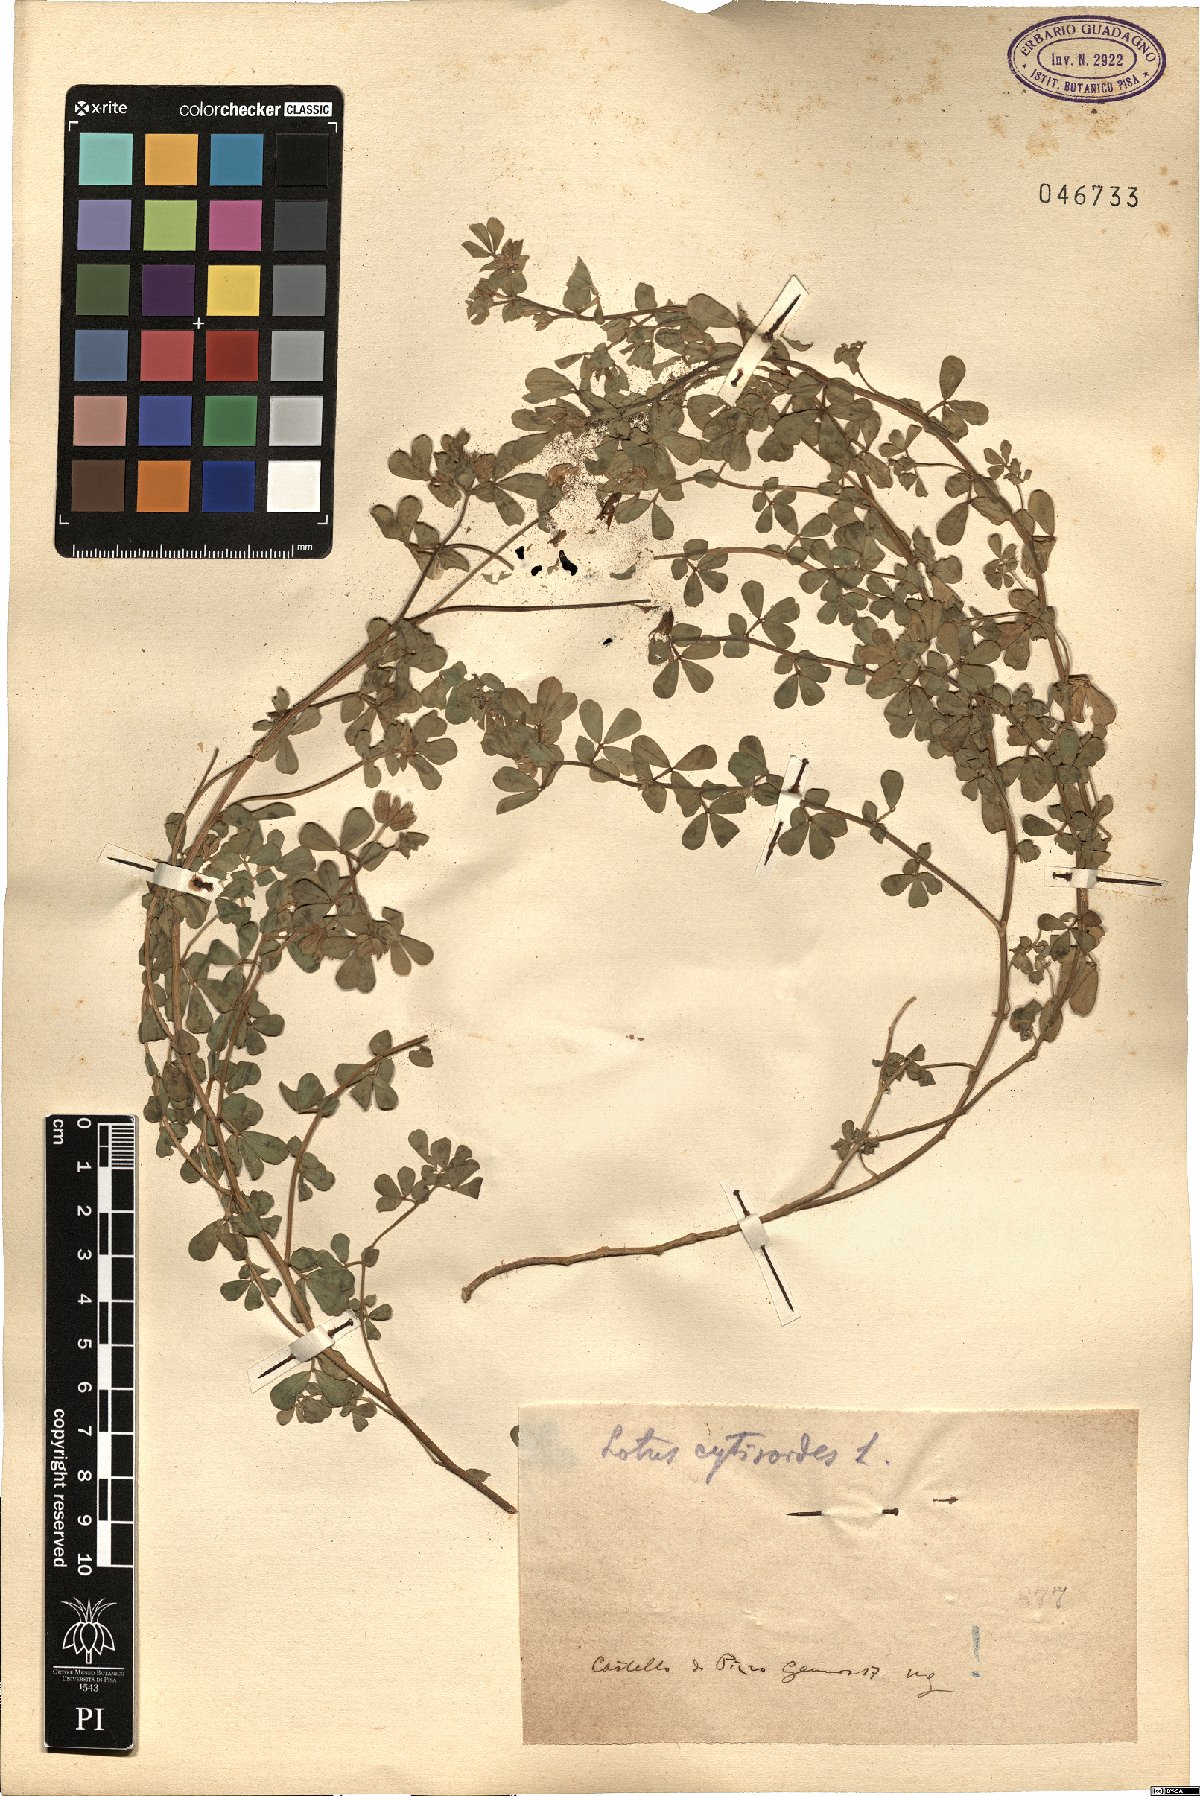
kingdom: Plantae
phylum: Tracheophyta
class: Magnoliopsida
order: Fabales
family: Fabaceae
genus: Lotus
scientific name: Lotus cytisoides
